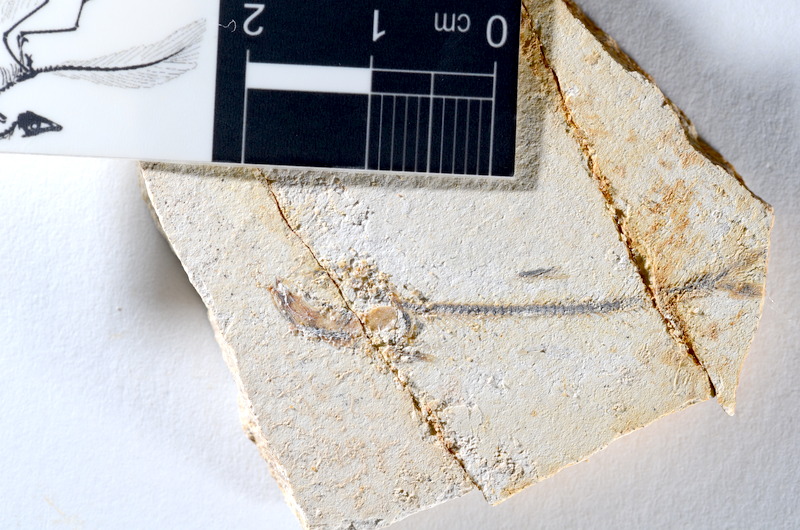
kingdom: Animalia
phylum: Chordata
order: Salmoniformes
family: Orthogonikleithridae
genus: Orthogonikleithrus
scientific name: Orthogonikleithrus hoelli
